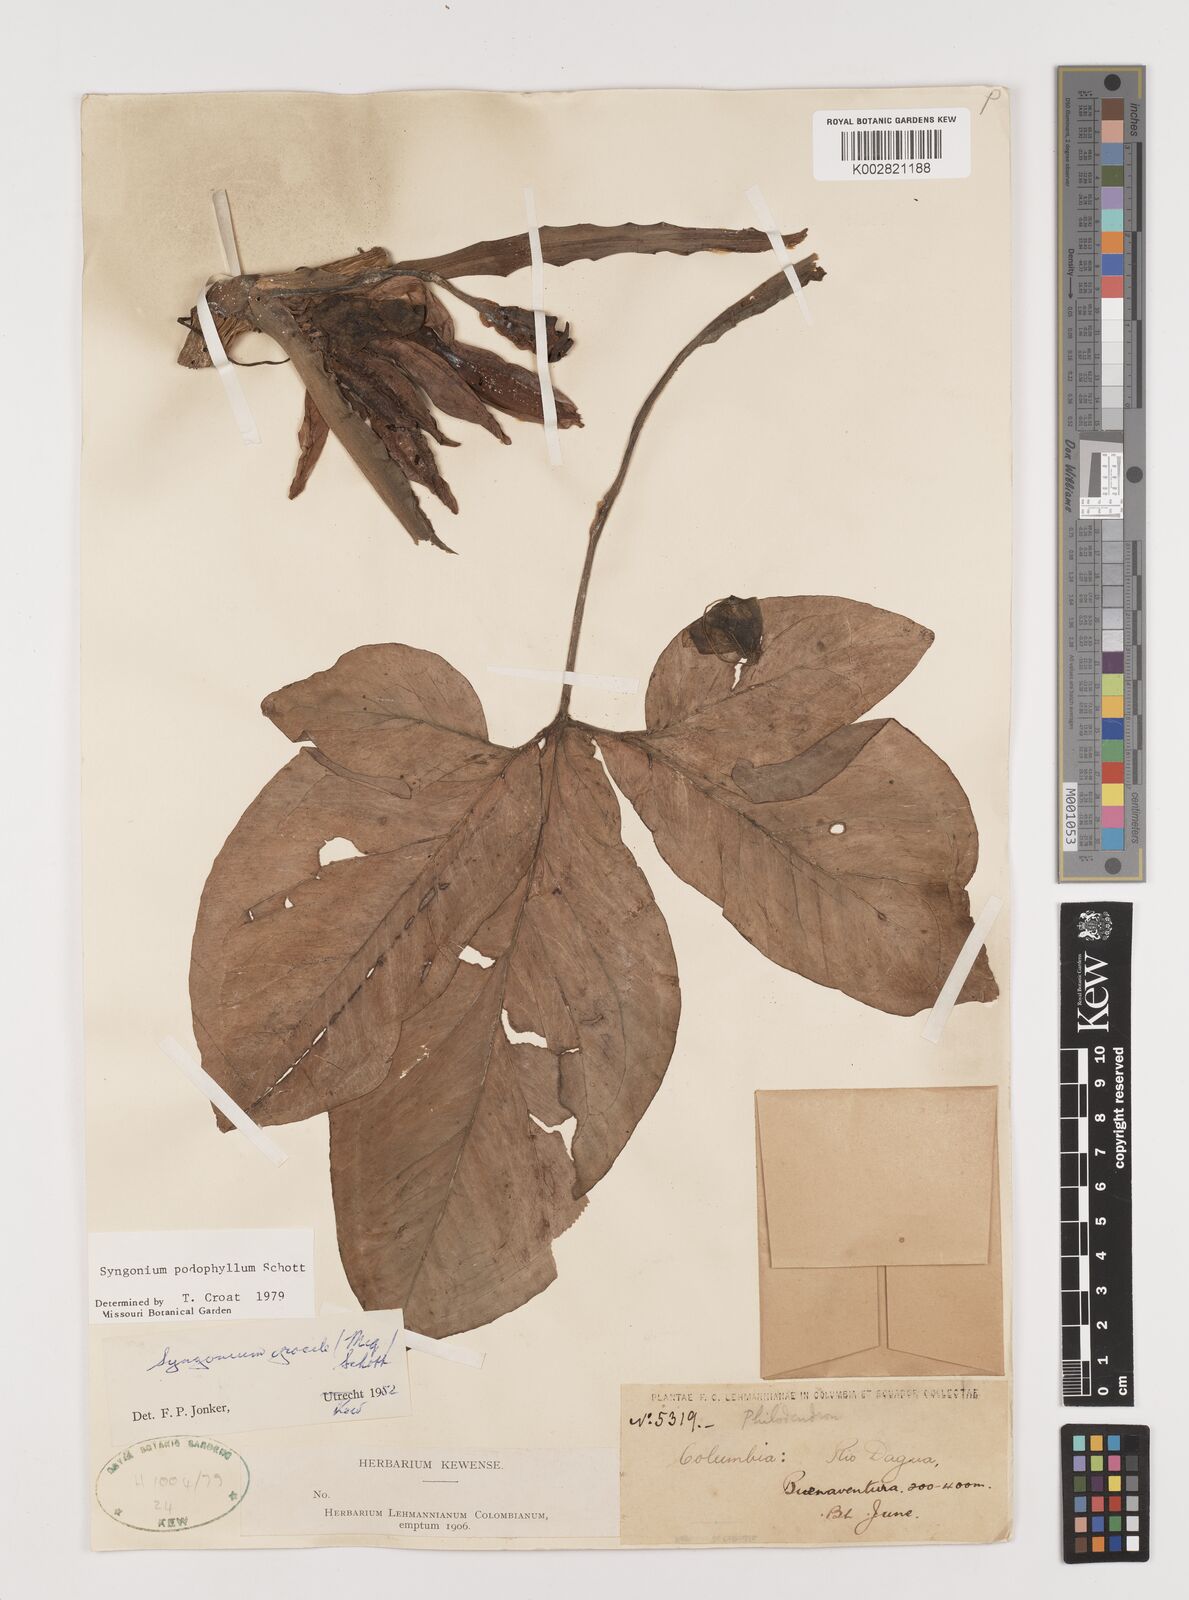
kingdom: Plantae
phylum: Tracheophyta
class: Liliopsida
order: Alismatales
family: Araceae
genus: Syngonium
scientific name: Syngonium podophyllum
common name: American evergreen
